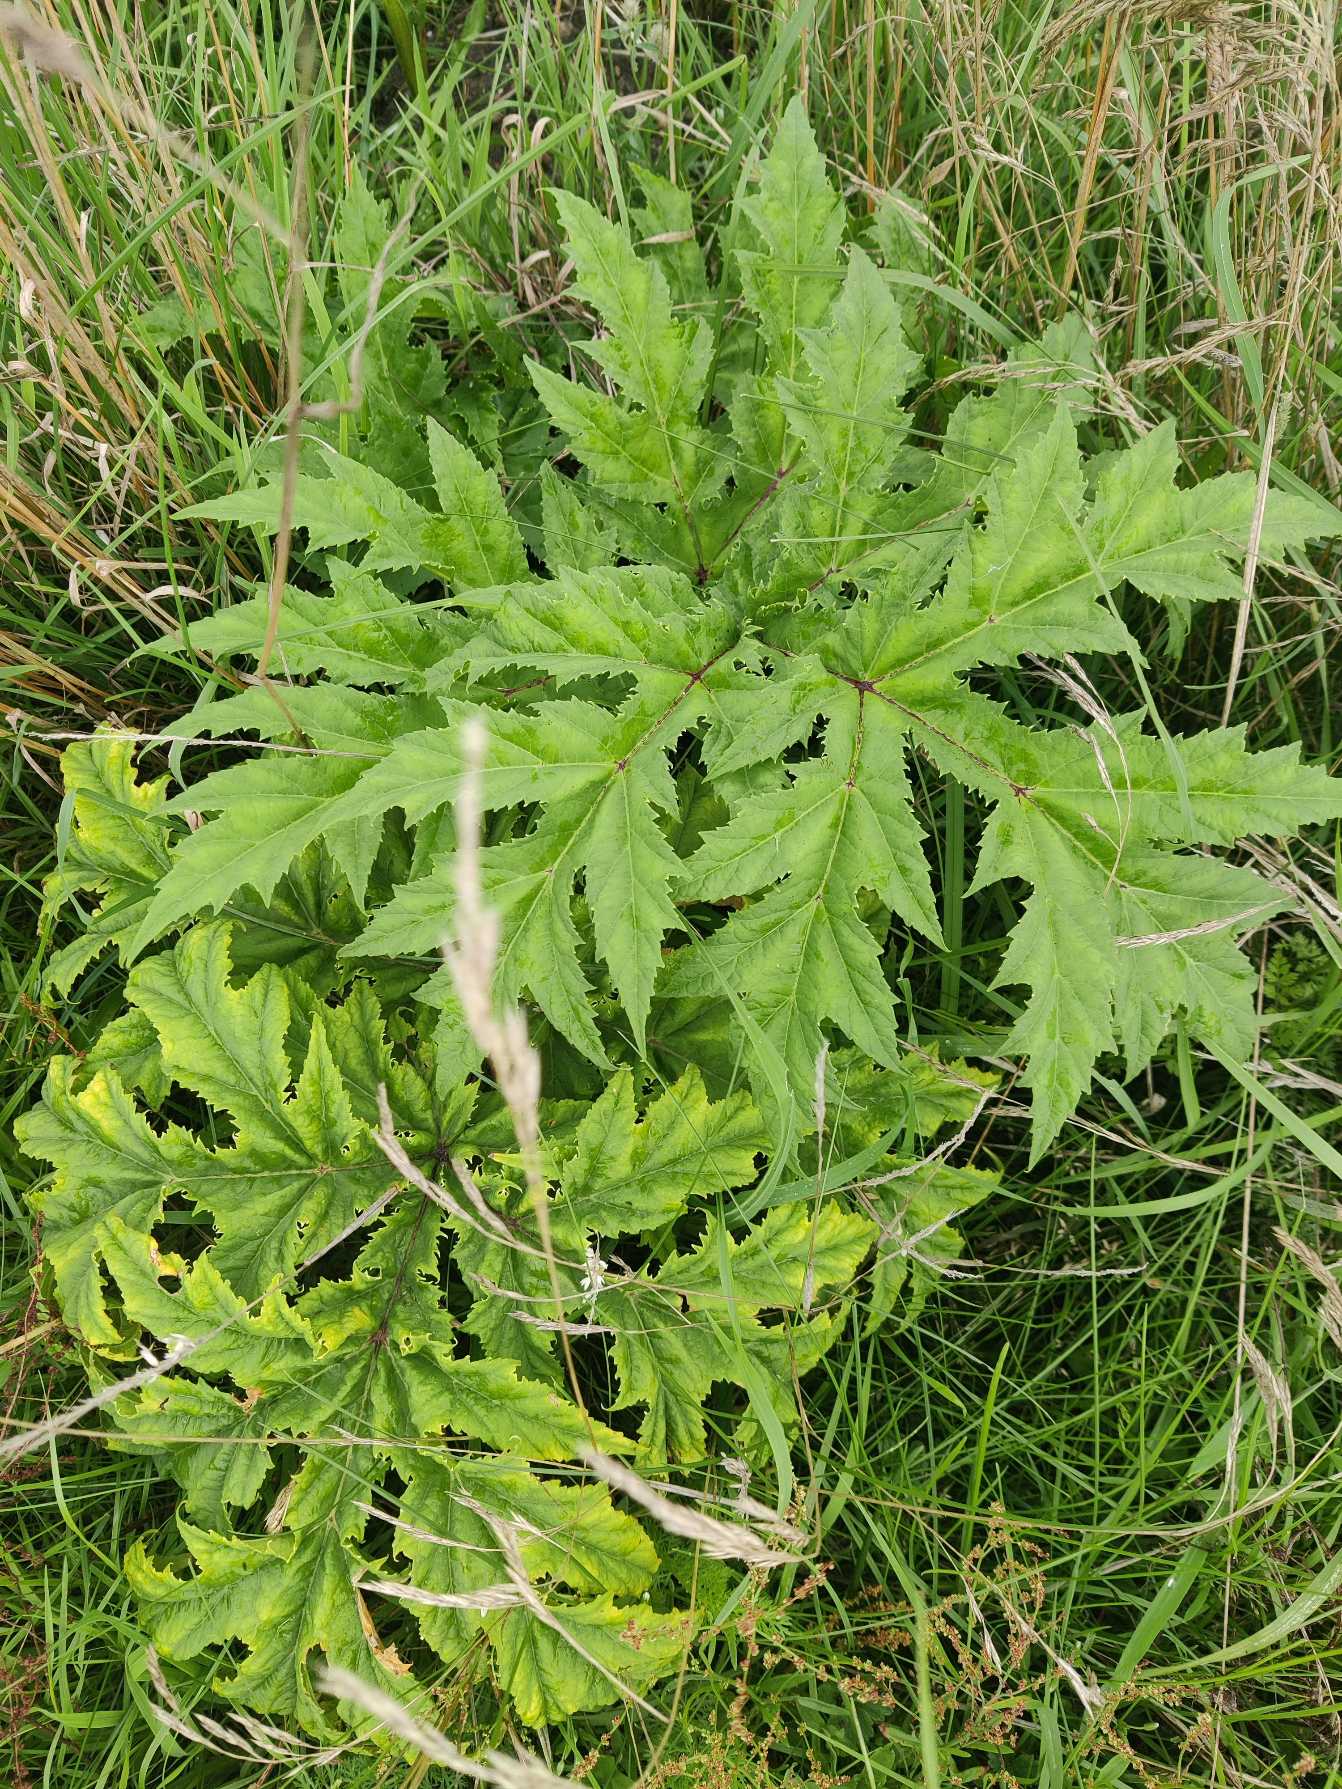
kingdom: Plantae
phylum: Tracheophyta
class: Magnoliopsida
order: Apiales
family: Apiaceae
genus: Heracleum
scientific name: Heracleum mantegazzianum
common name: Kæmpe-bjørneklo
